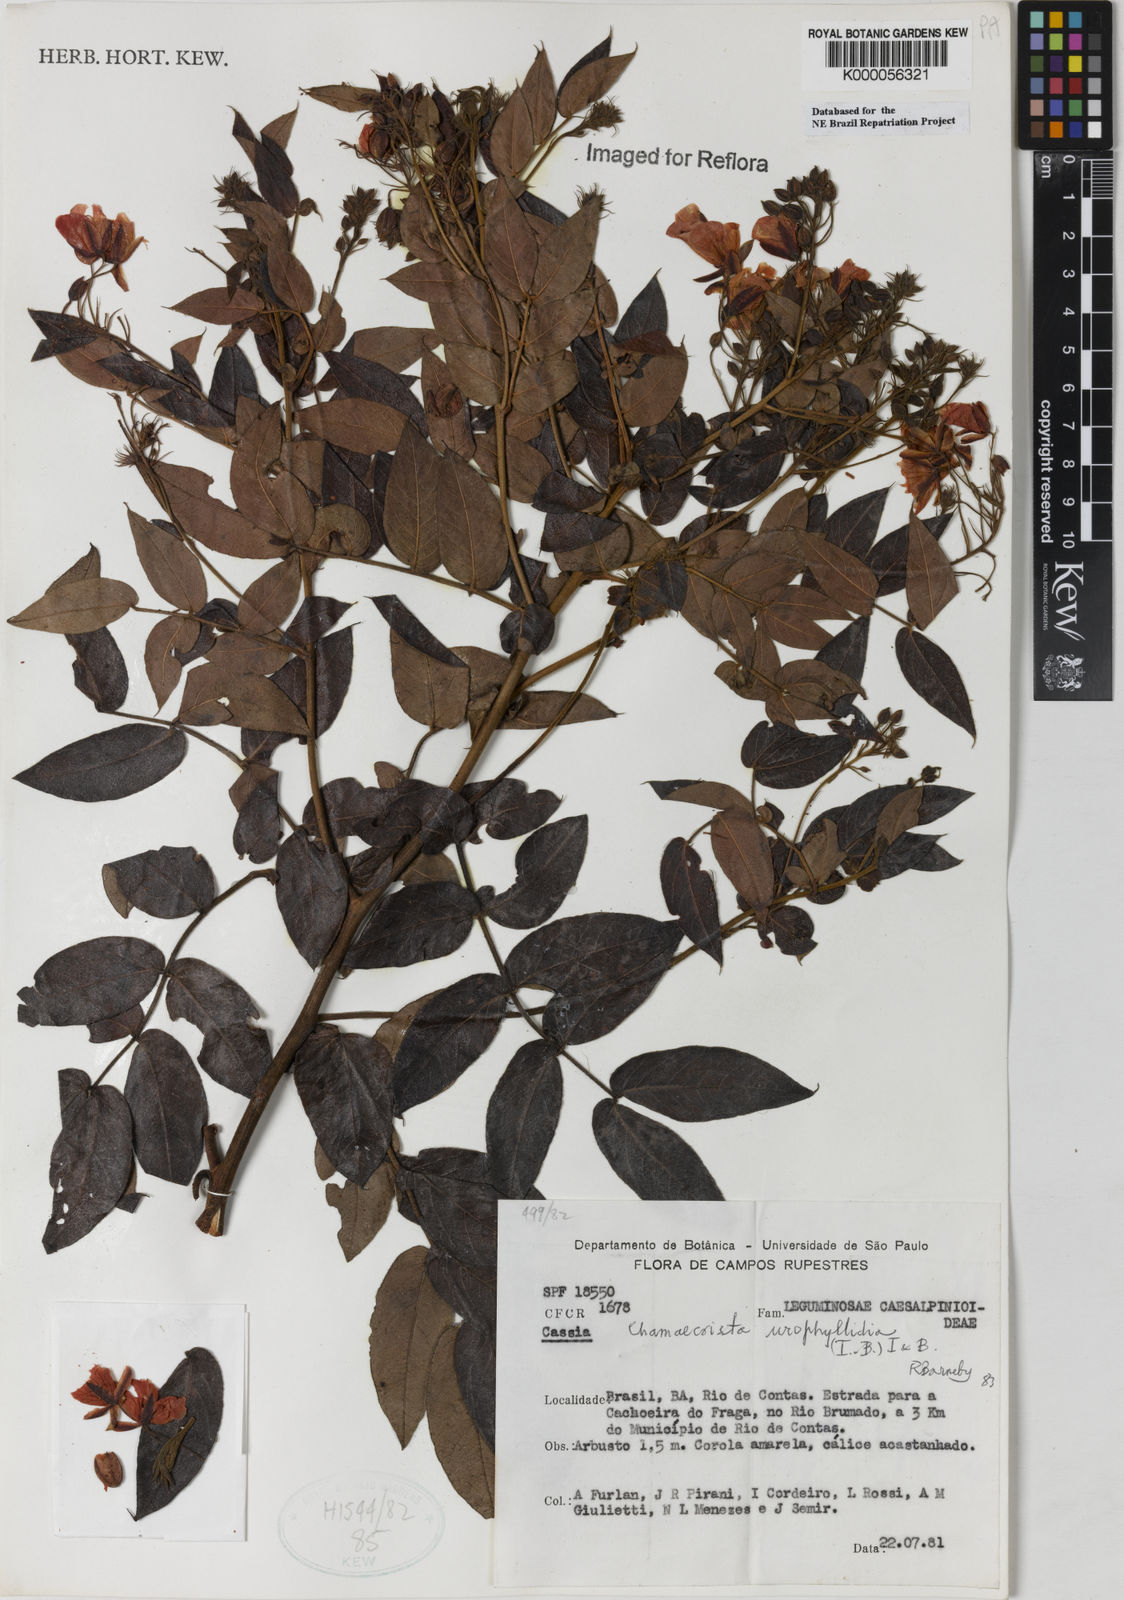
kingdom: Plantae
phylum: Tracheophyta
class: Magnoliopsida
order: Fabales
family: Fabaceae
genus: Chamaecrista
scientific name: Chamaecrista urophyllidia
